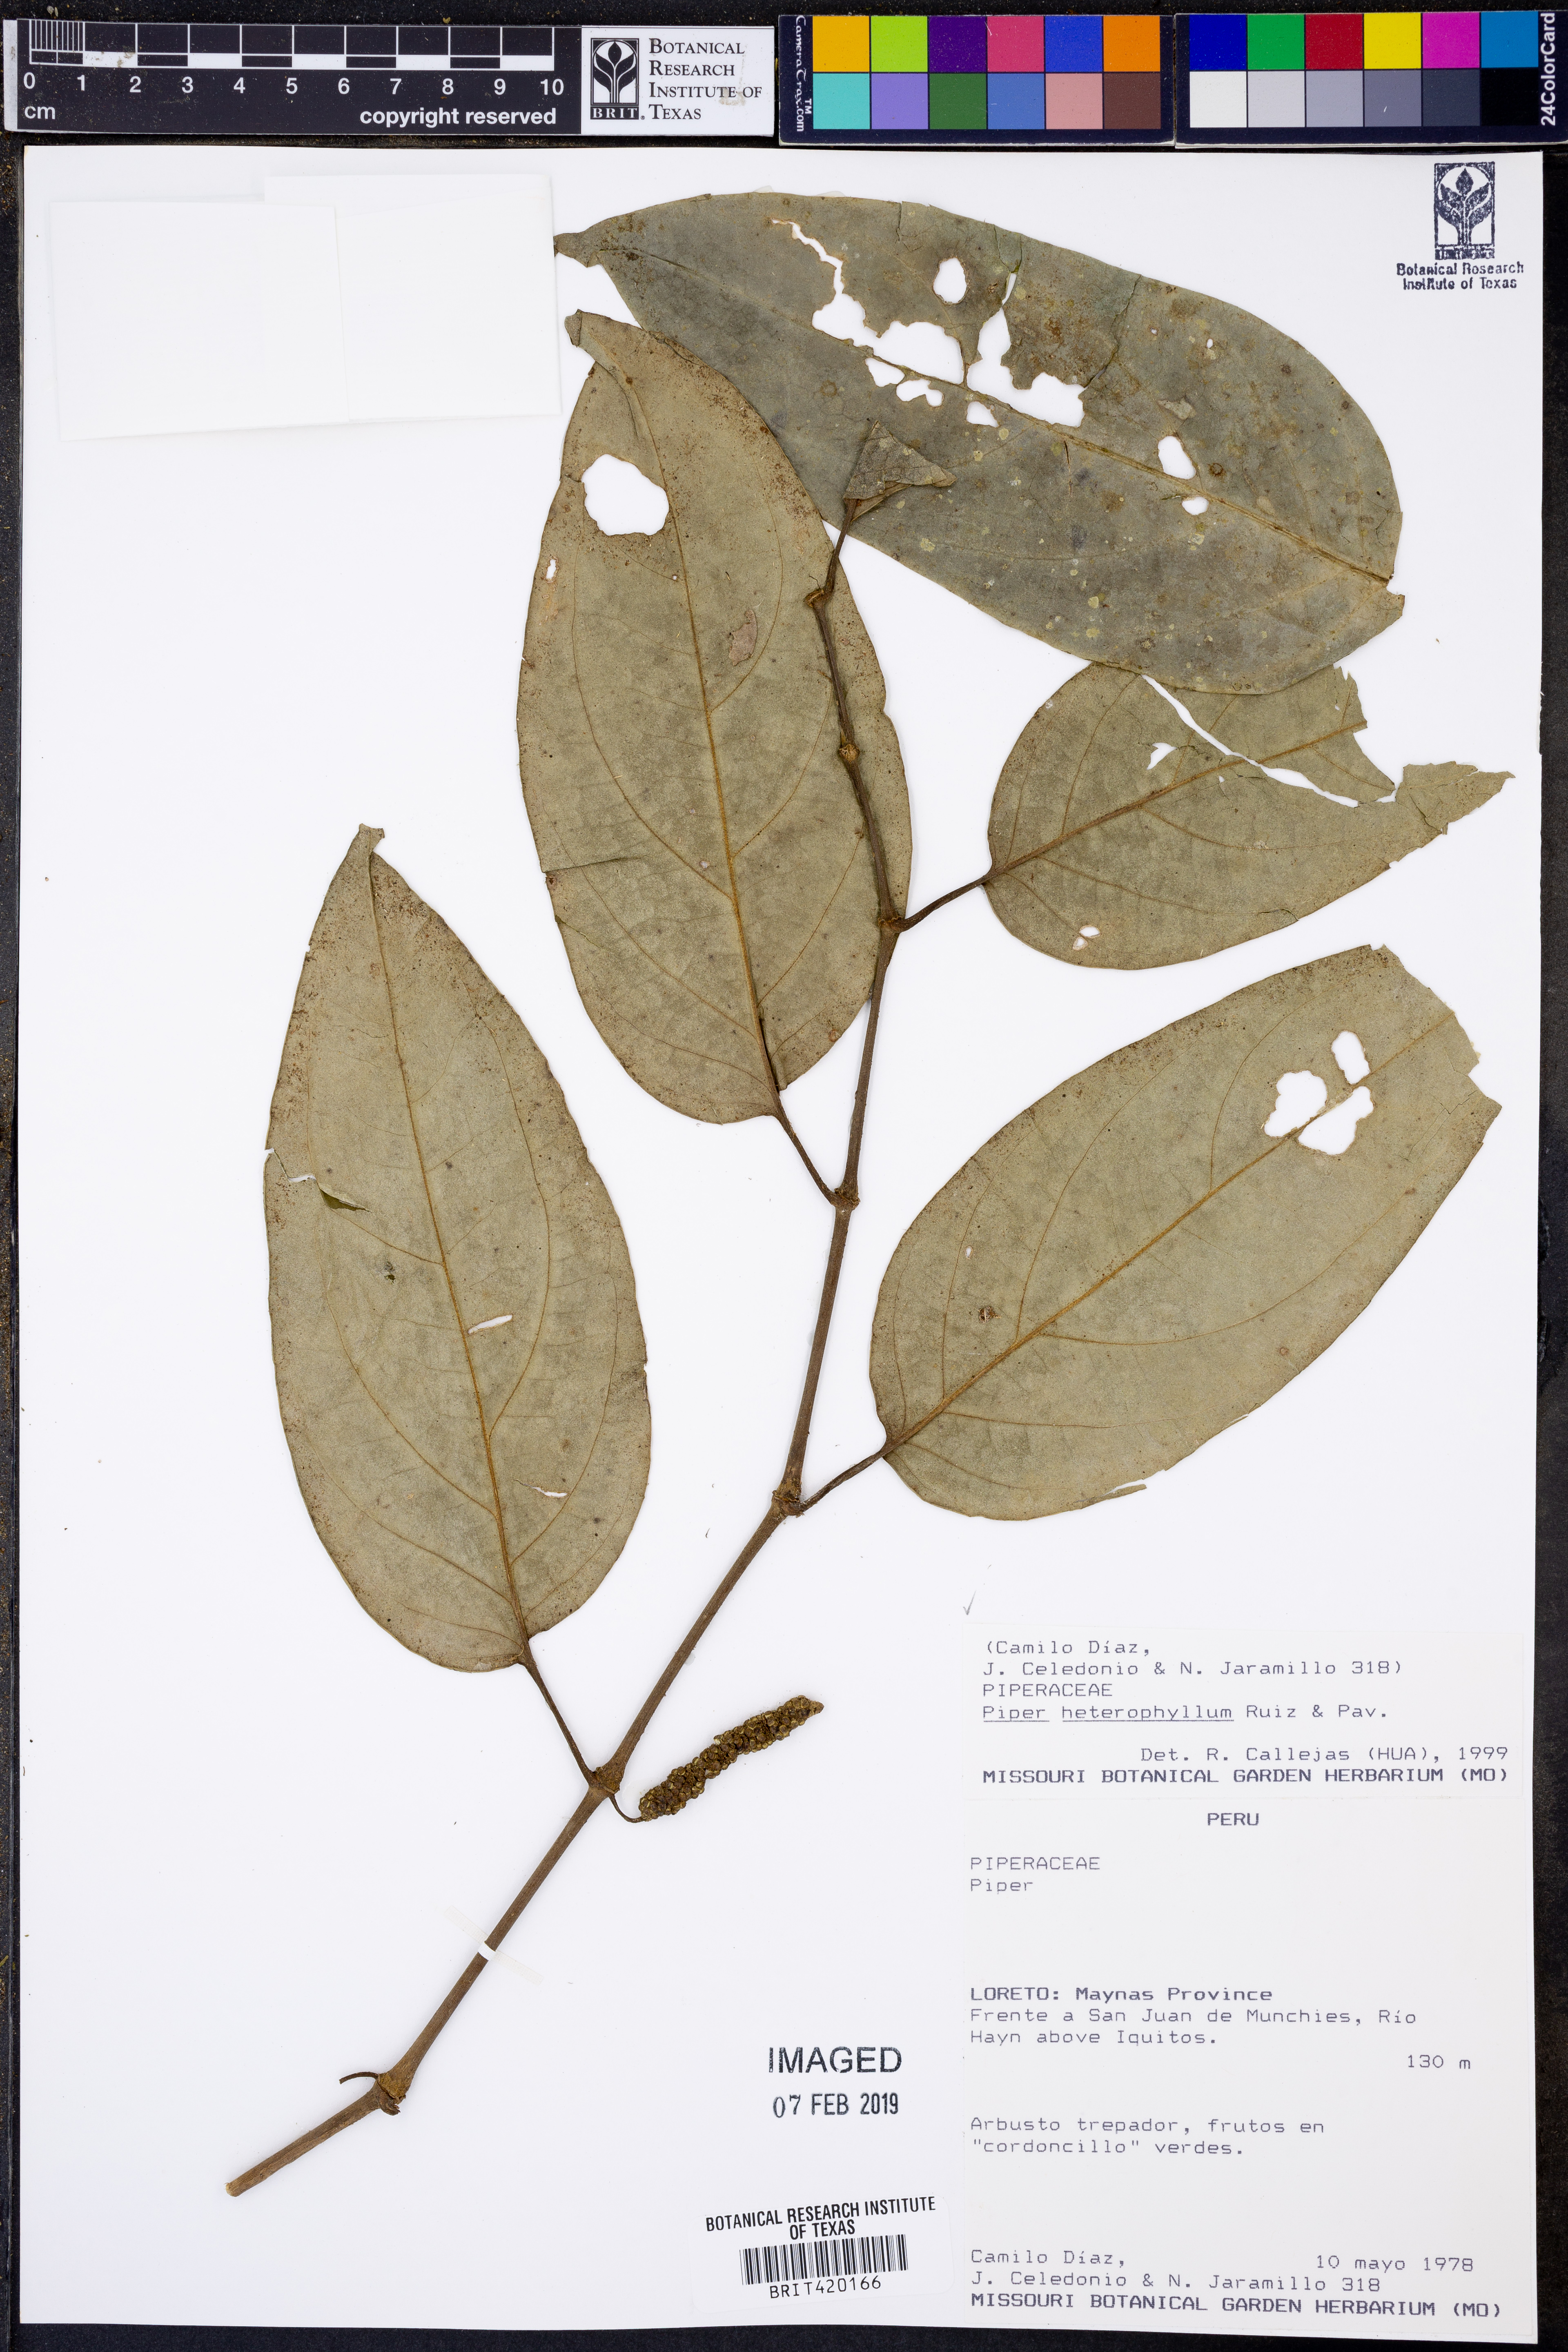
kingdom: Plantae
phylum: Tracheophyta
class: Magnoliopsida
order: Piperales
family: Piperaceae
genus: Piper
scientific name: Piper heterophyllum
